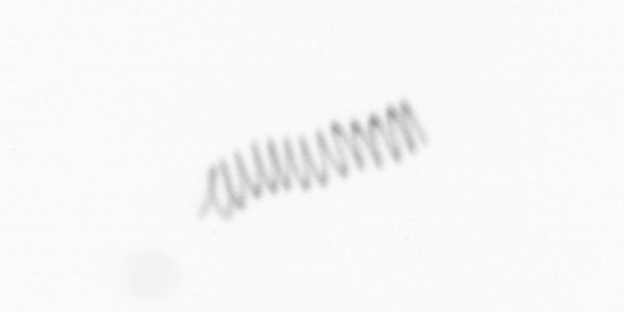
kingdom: Chromista
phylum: Ochrophyta
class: Bacillariophyceae
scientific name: Bacillariophyceae
